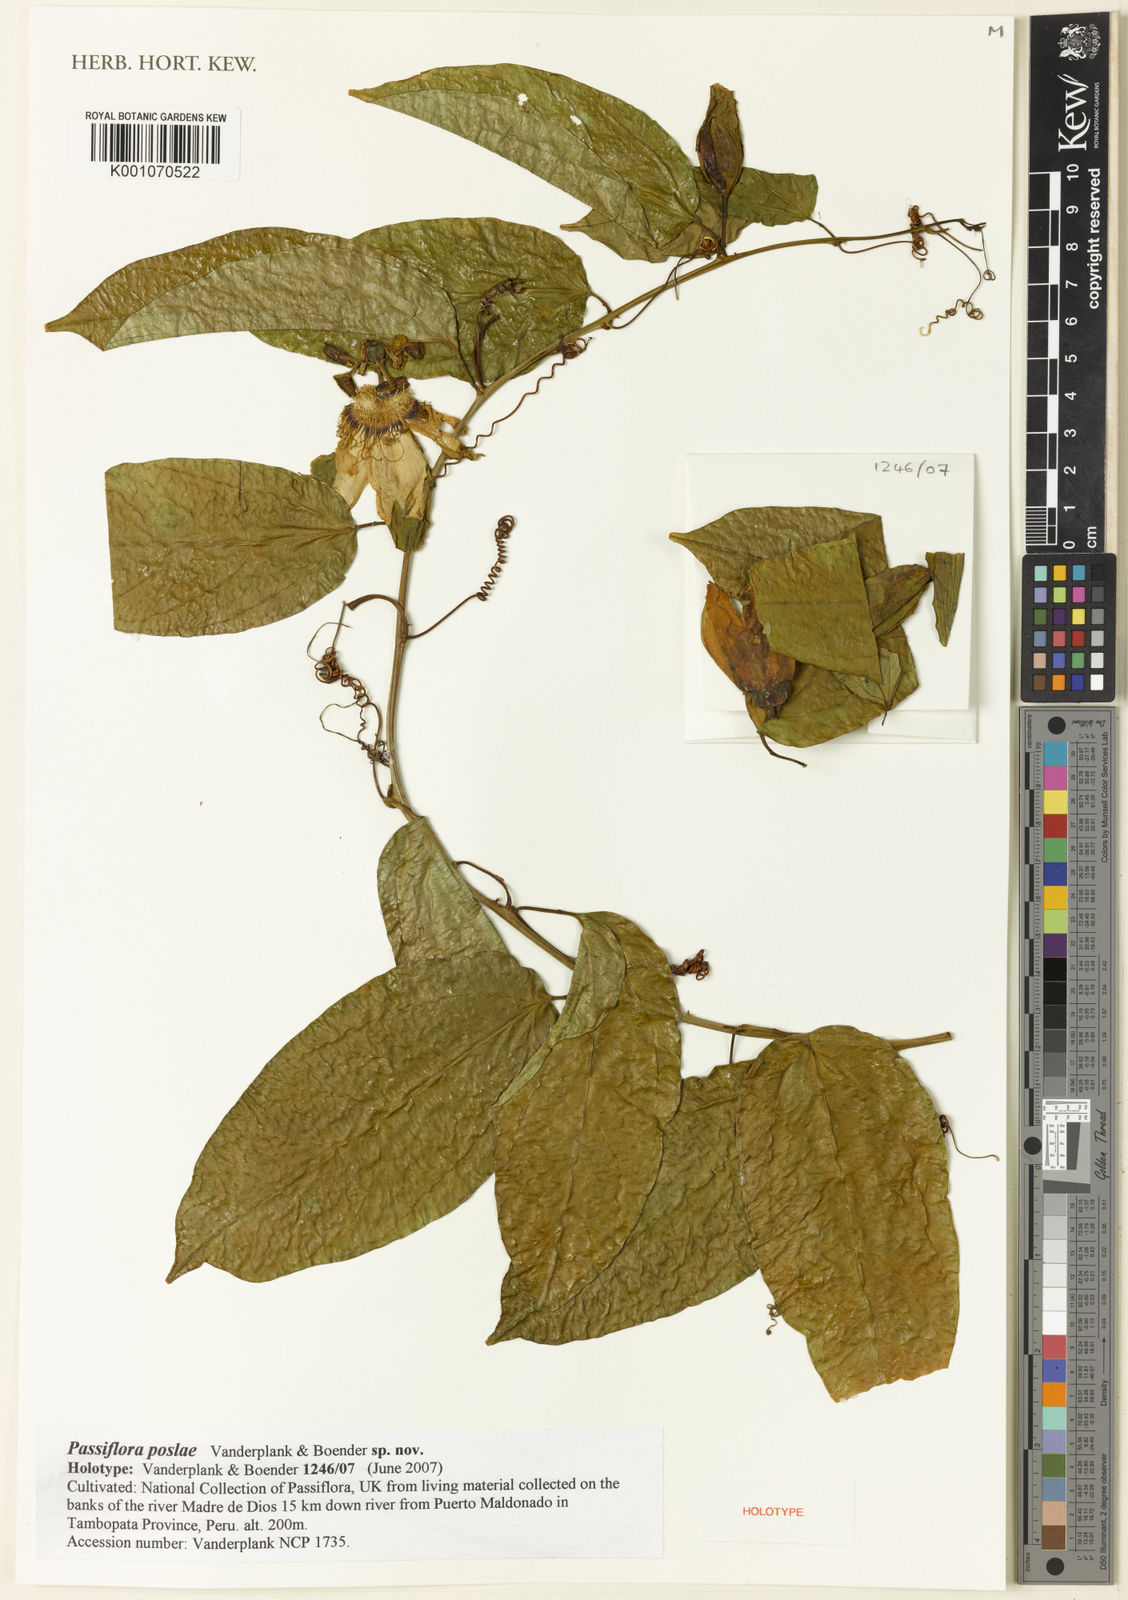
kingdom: Plantae
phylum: Tracheophyta
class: Magnoliopsida
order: Malpighiales
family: Passifloraceae
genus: Passiflora
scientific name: Passiflora
